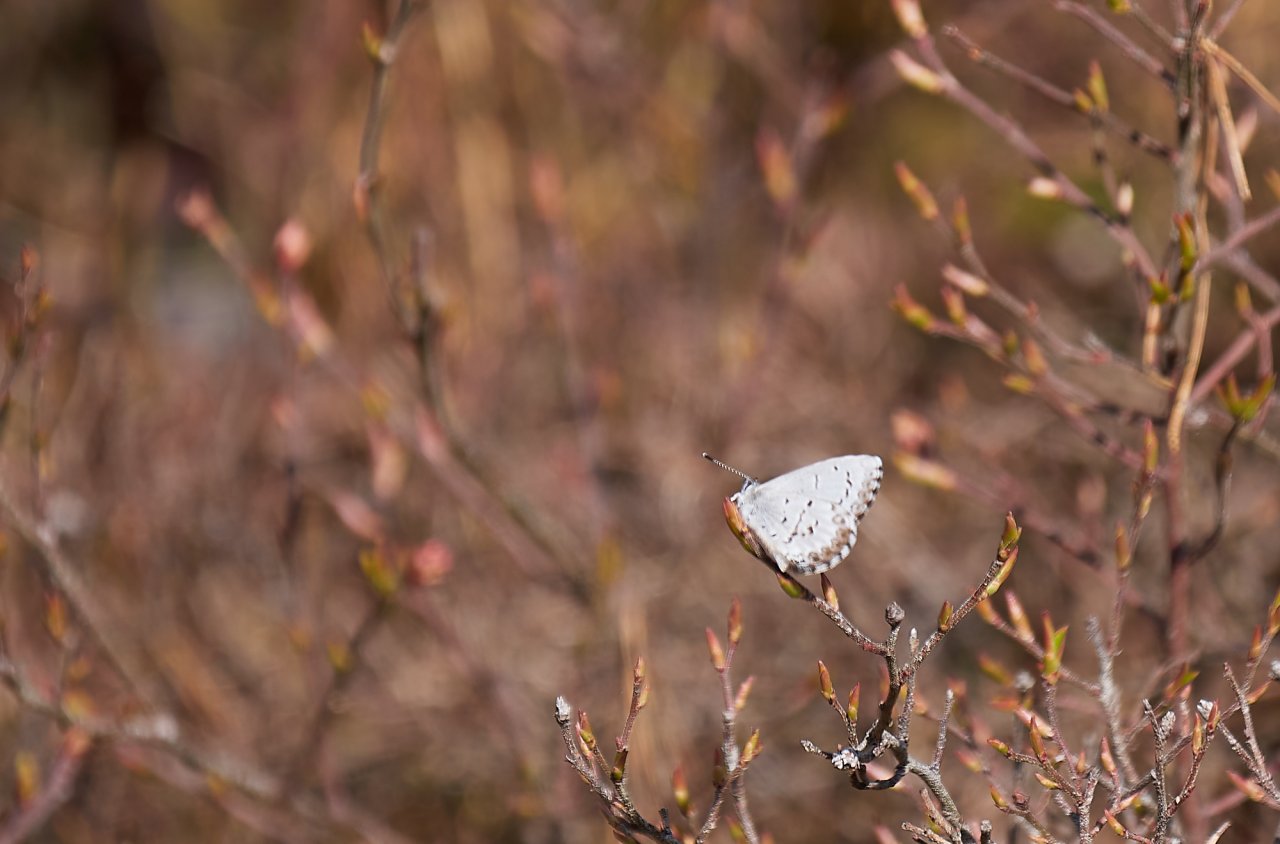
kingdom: Animalia
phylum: Arthropoda
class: Insecta
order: Lepidoptera
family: Lycaenidae
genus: Celastrina
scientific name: Celastrina lucia
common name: Northern Spring Azure
